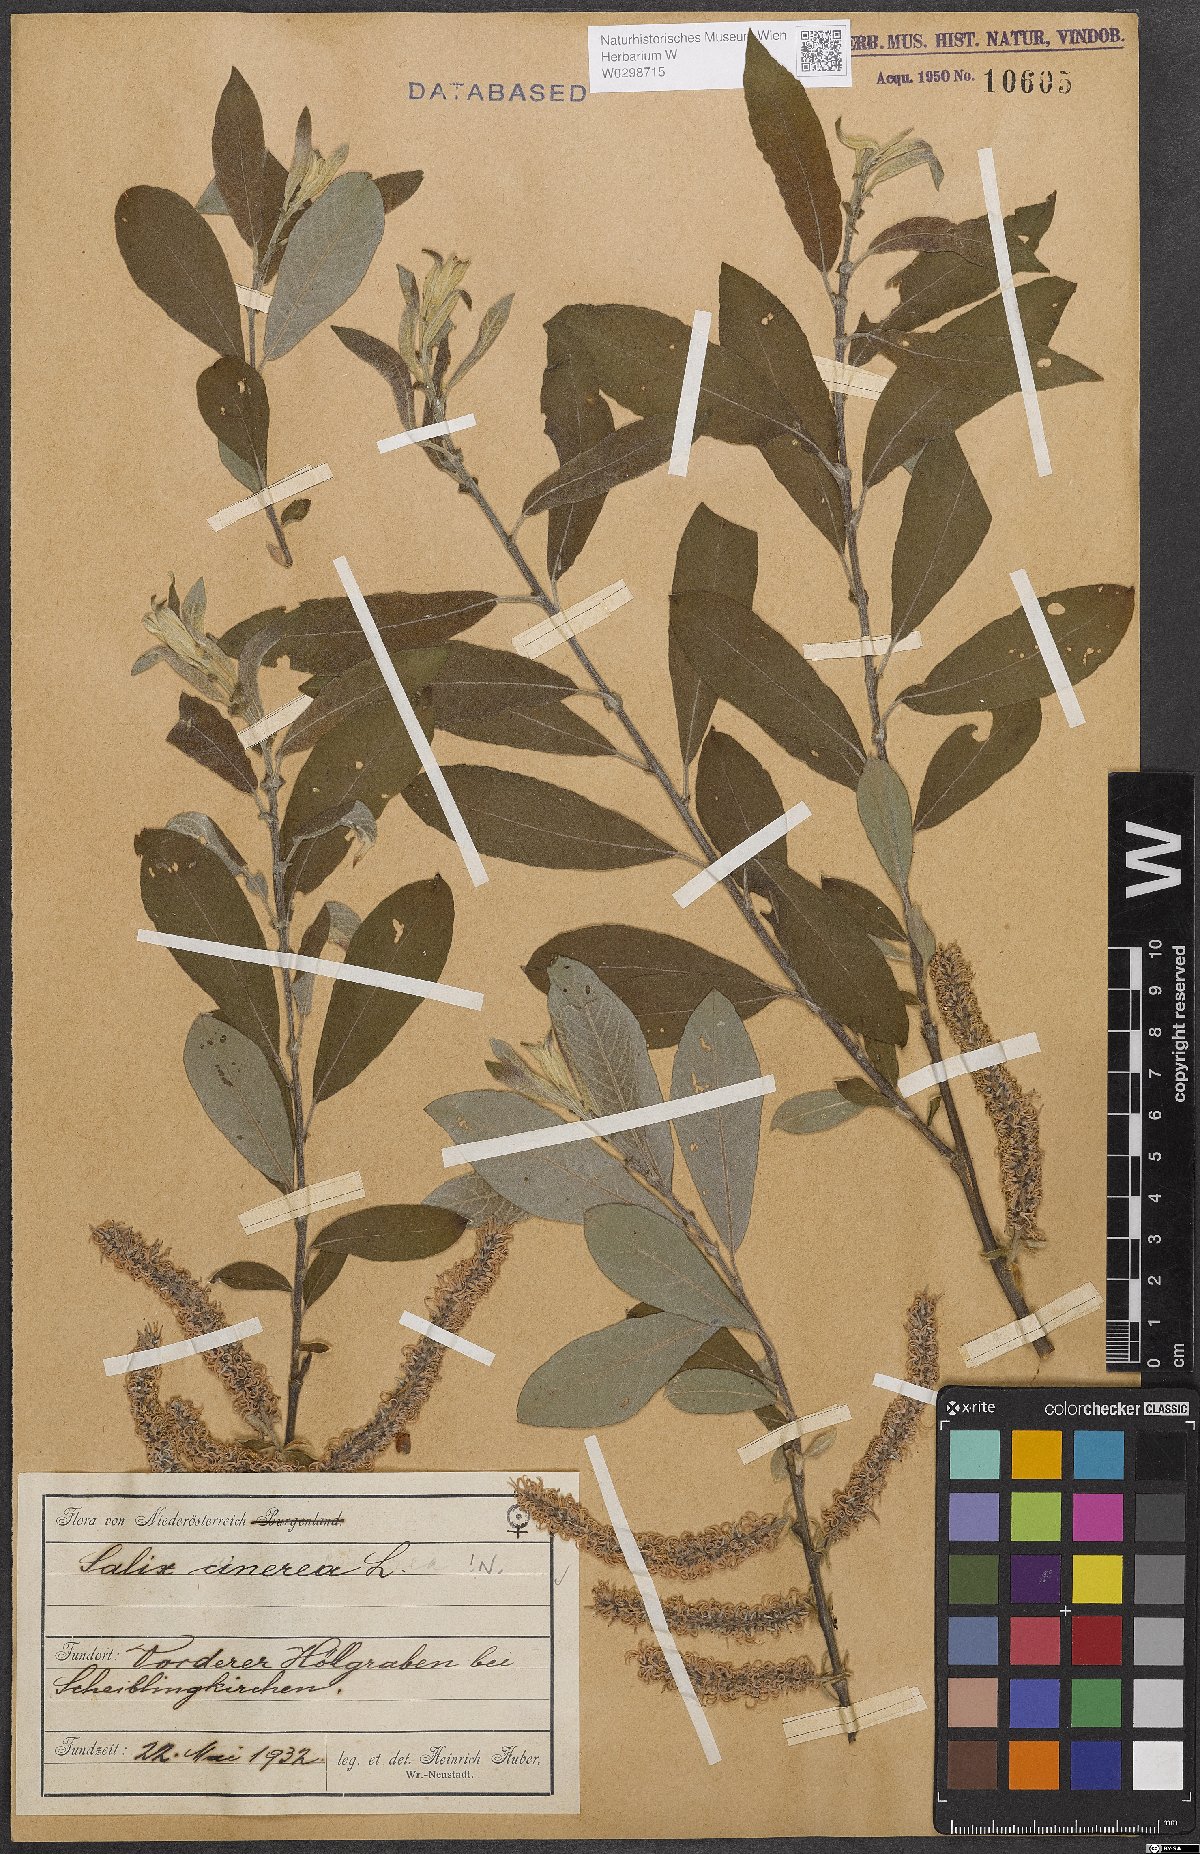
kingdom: Plantae
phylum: Tracheophyta
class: Magnoliopsida
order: Malpighiales
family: Salicaceae
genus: Salix
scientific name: Salix cinerea
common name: Common sallow
